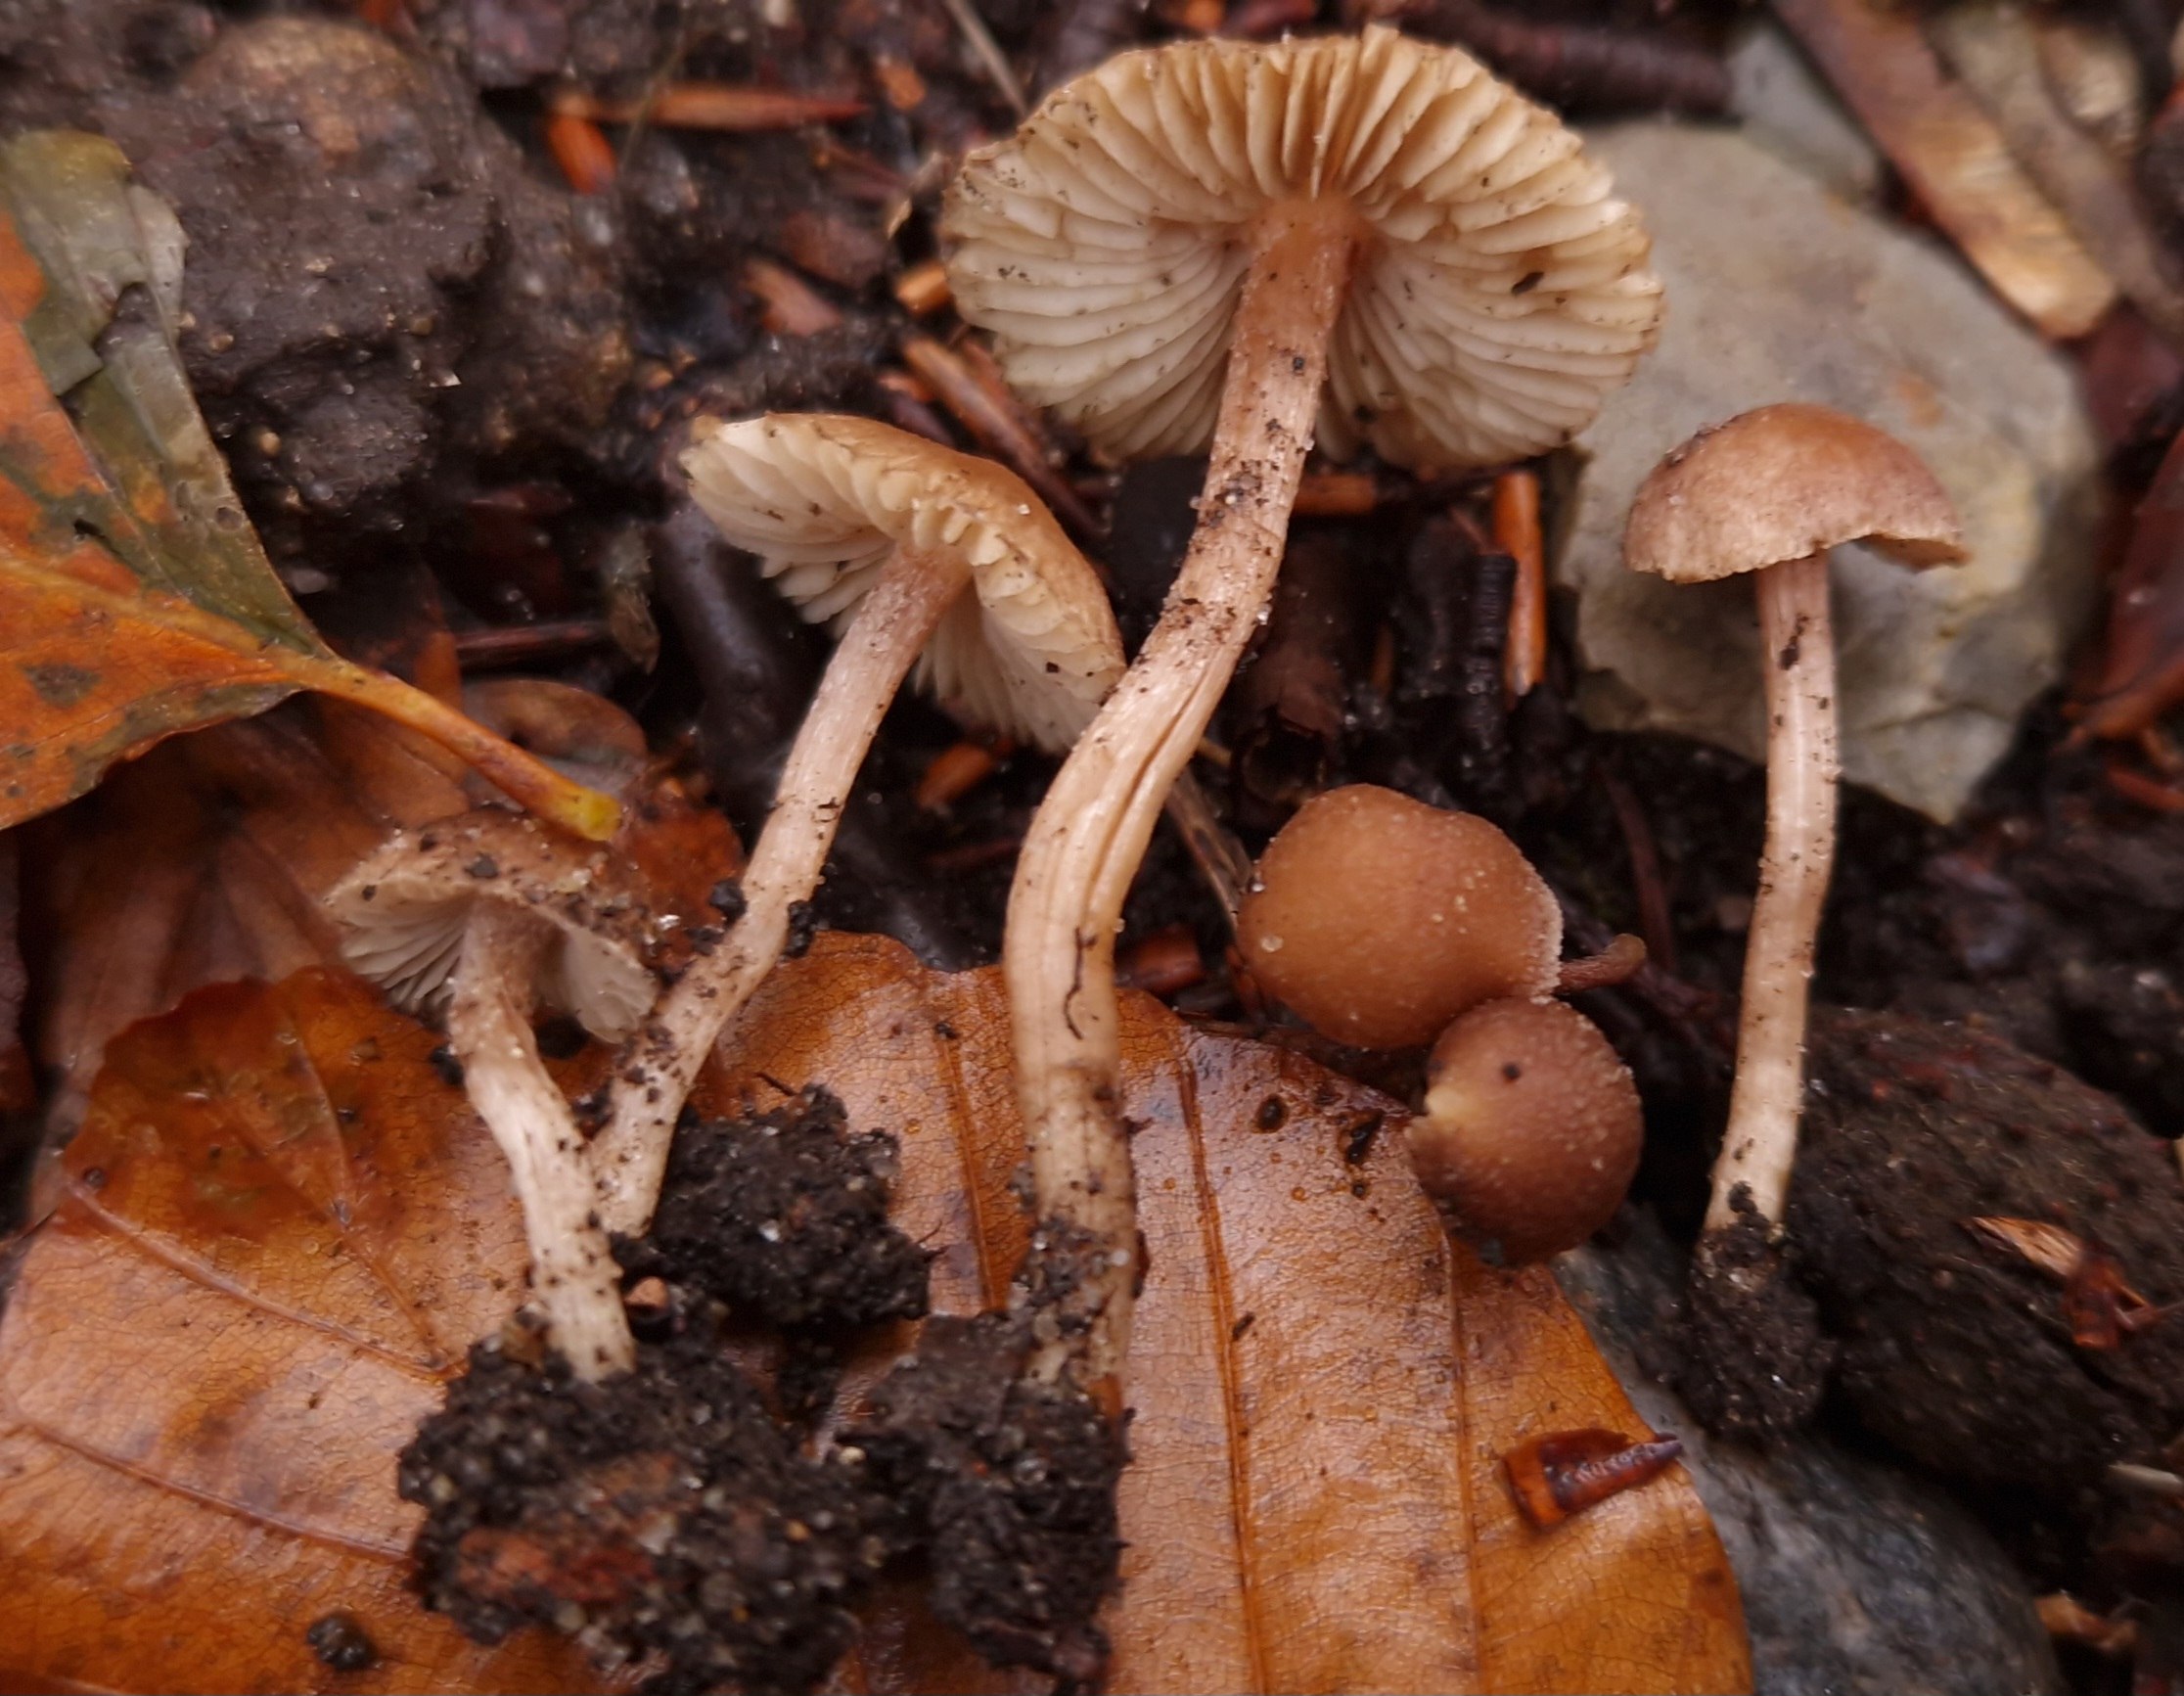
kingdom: Fungi
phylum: Basidiomycota
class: Agaricomycetes
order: Agaricales
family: Inocybaceae
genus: Inocybe
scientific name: Inocybe
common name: trævlhat
